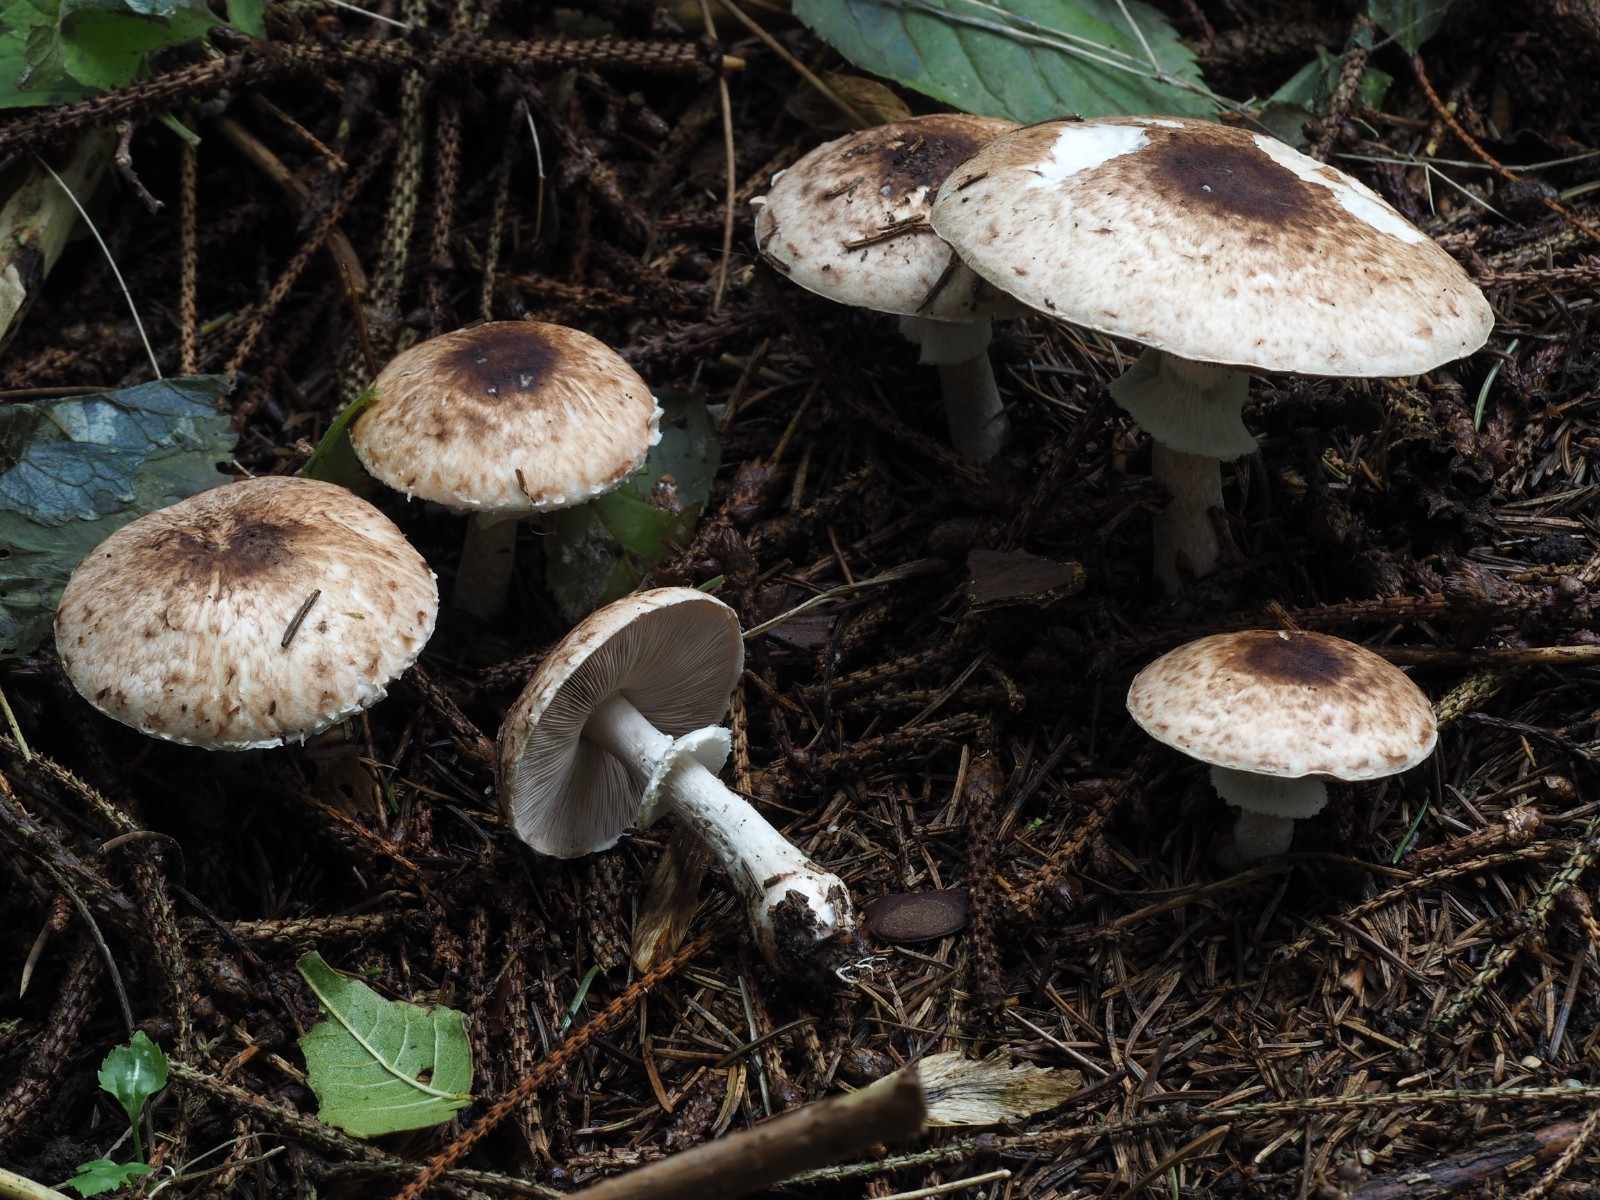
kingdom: Fungi
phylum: Basidiomycota
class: Agaricomycetes
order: Agaricales
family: Agaricaceae
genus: Agaricus
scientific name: Agaricus impudicus
